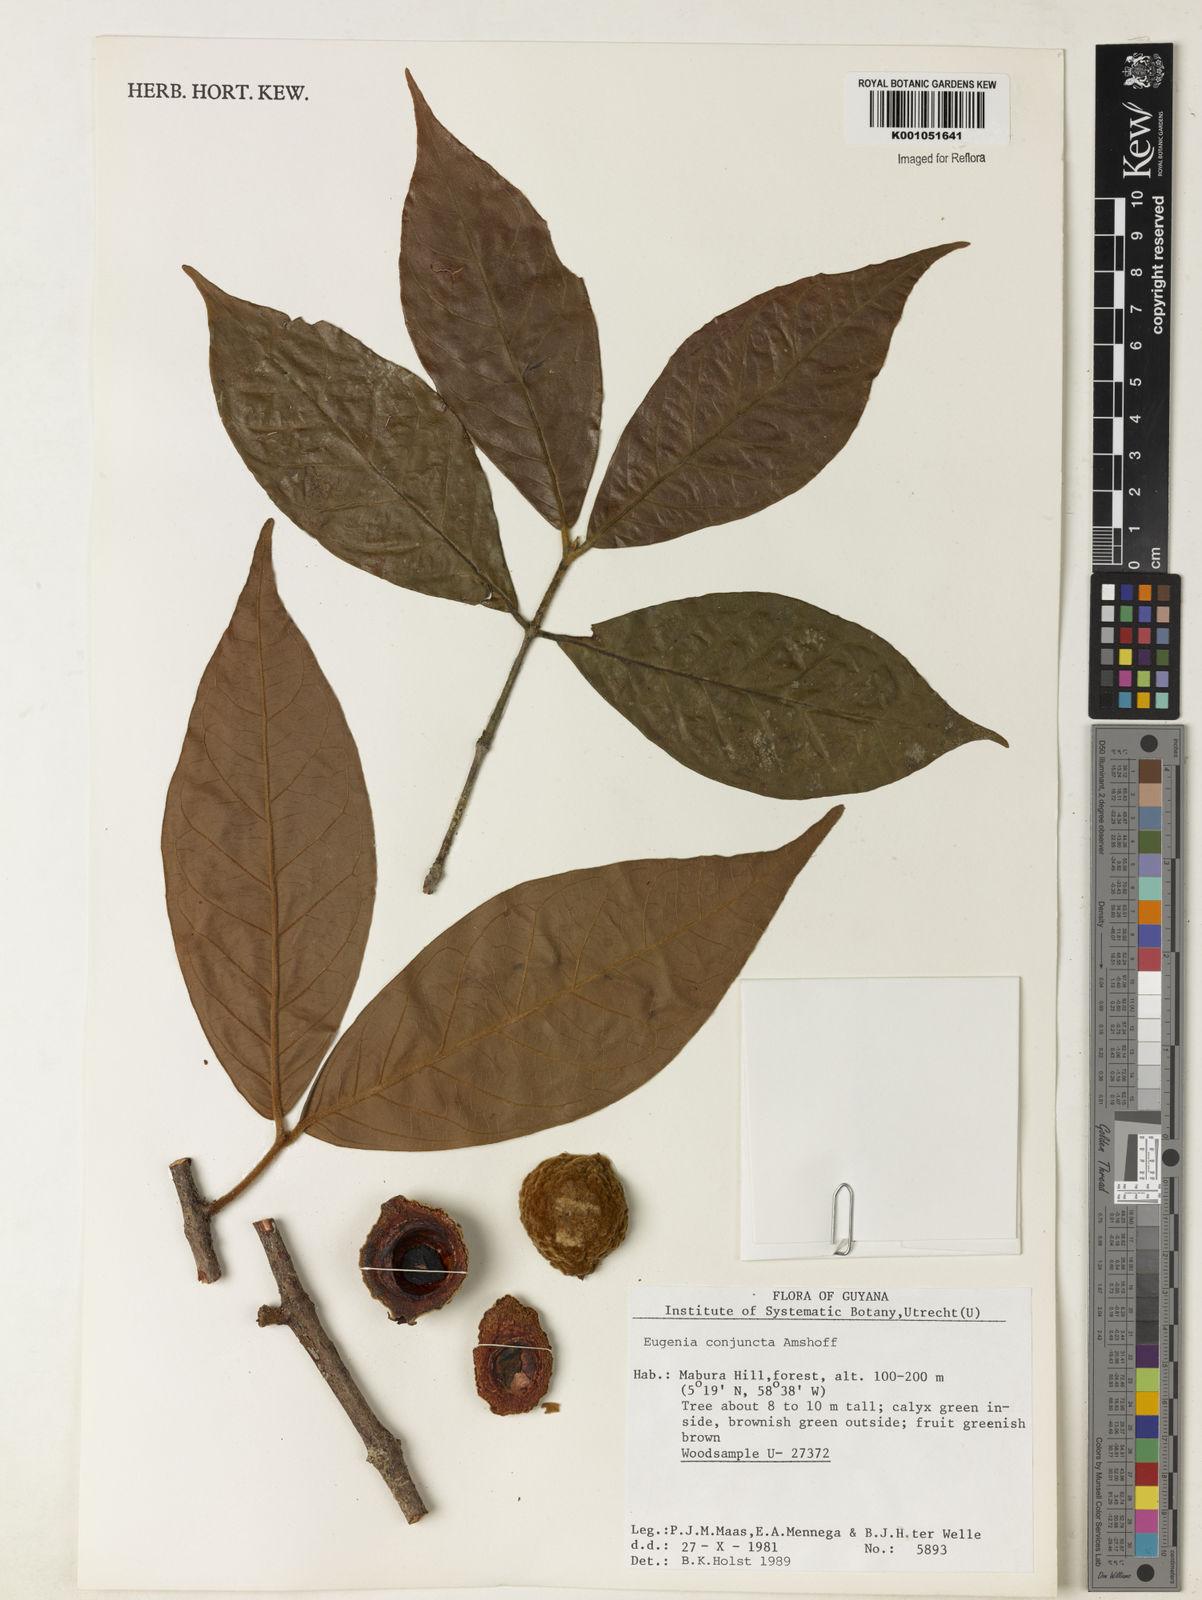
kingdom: Plantae
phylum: Tracheophyta
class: Magnoliopsida
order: Myrtales
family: Myrtaceae
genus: Eugenia
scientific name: Eugenia conjuncta
